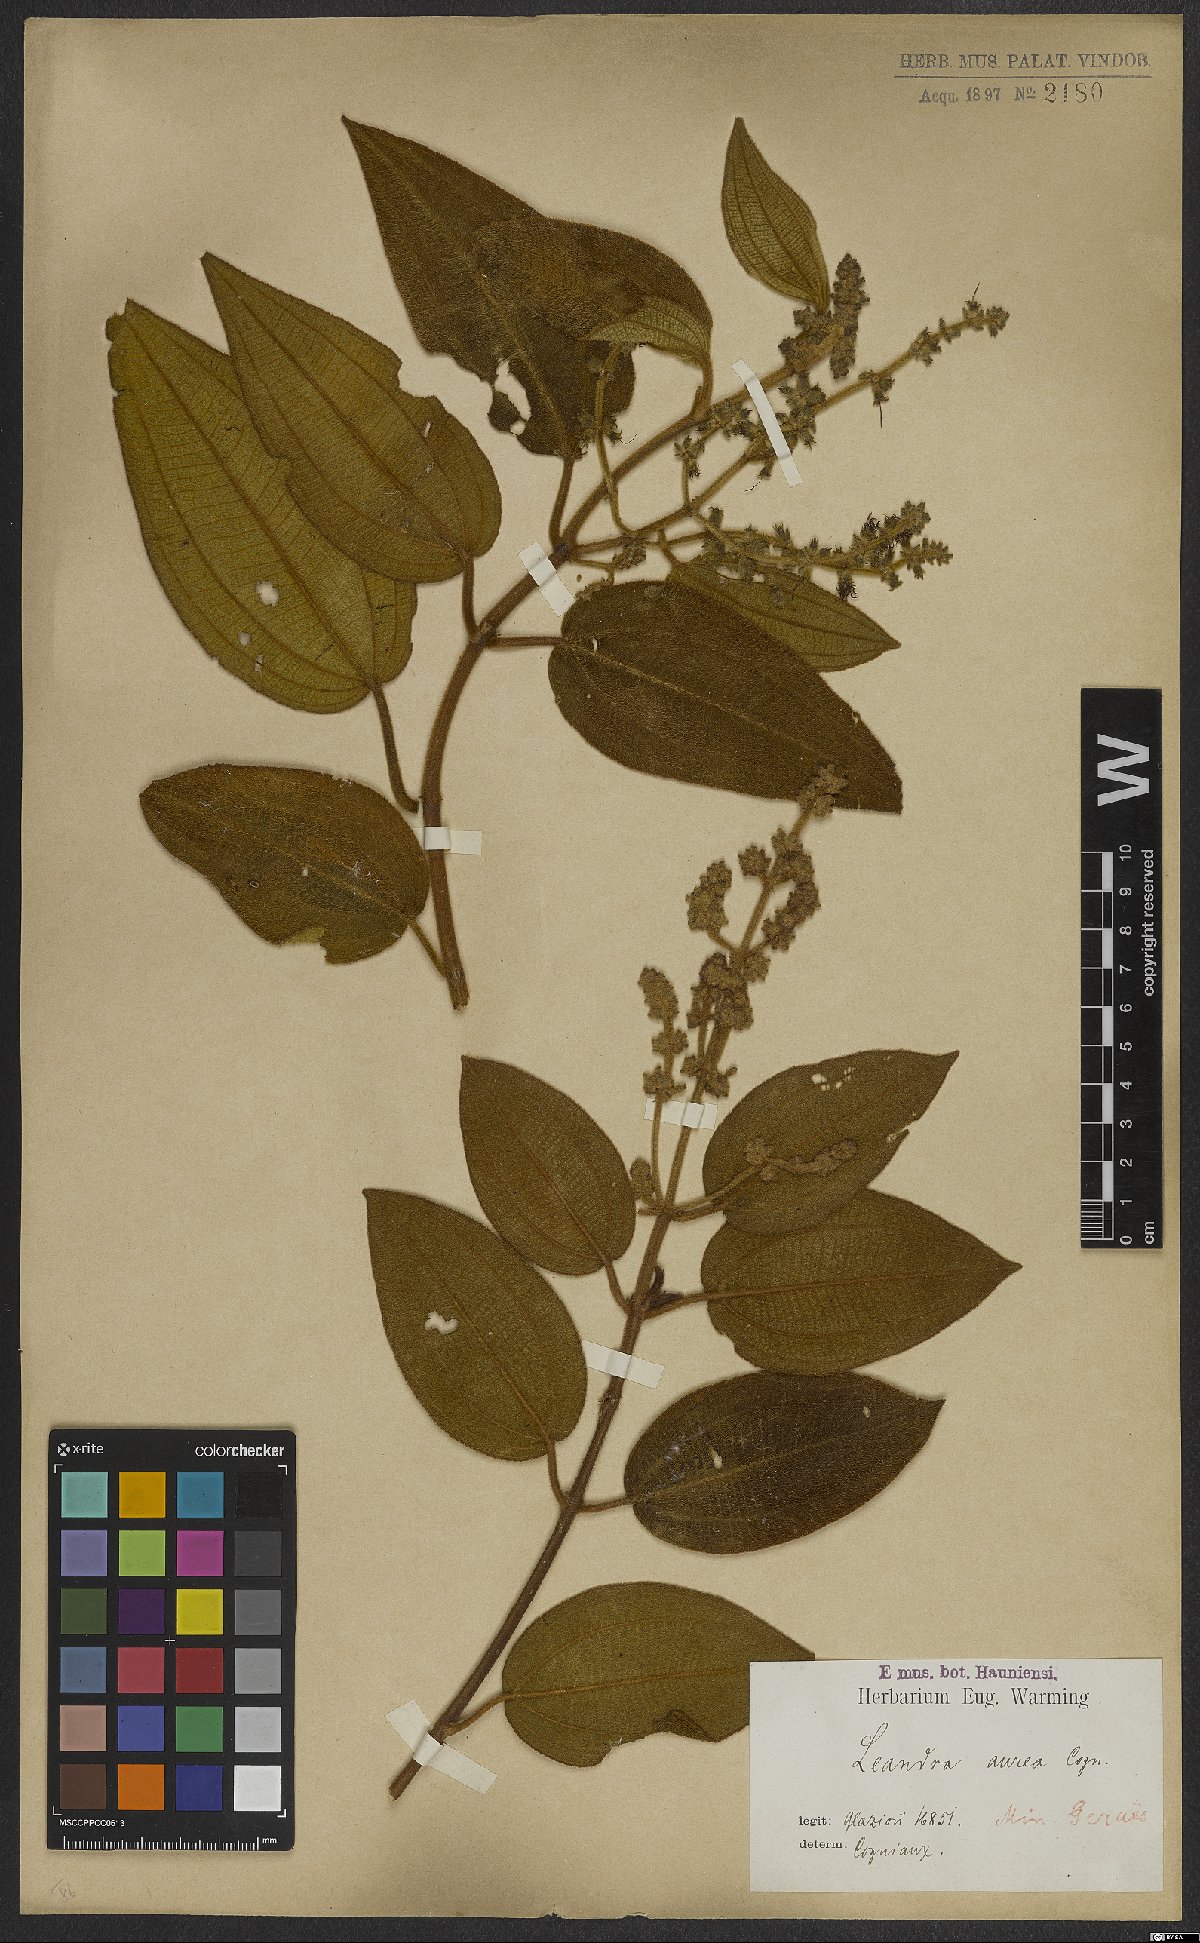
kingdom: Plantae
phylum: Tracheophyta
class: Magnoliopsida
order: Myrtales
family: Melastomataceae
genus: Miconia
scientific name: Miconia auricoma
